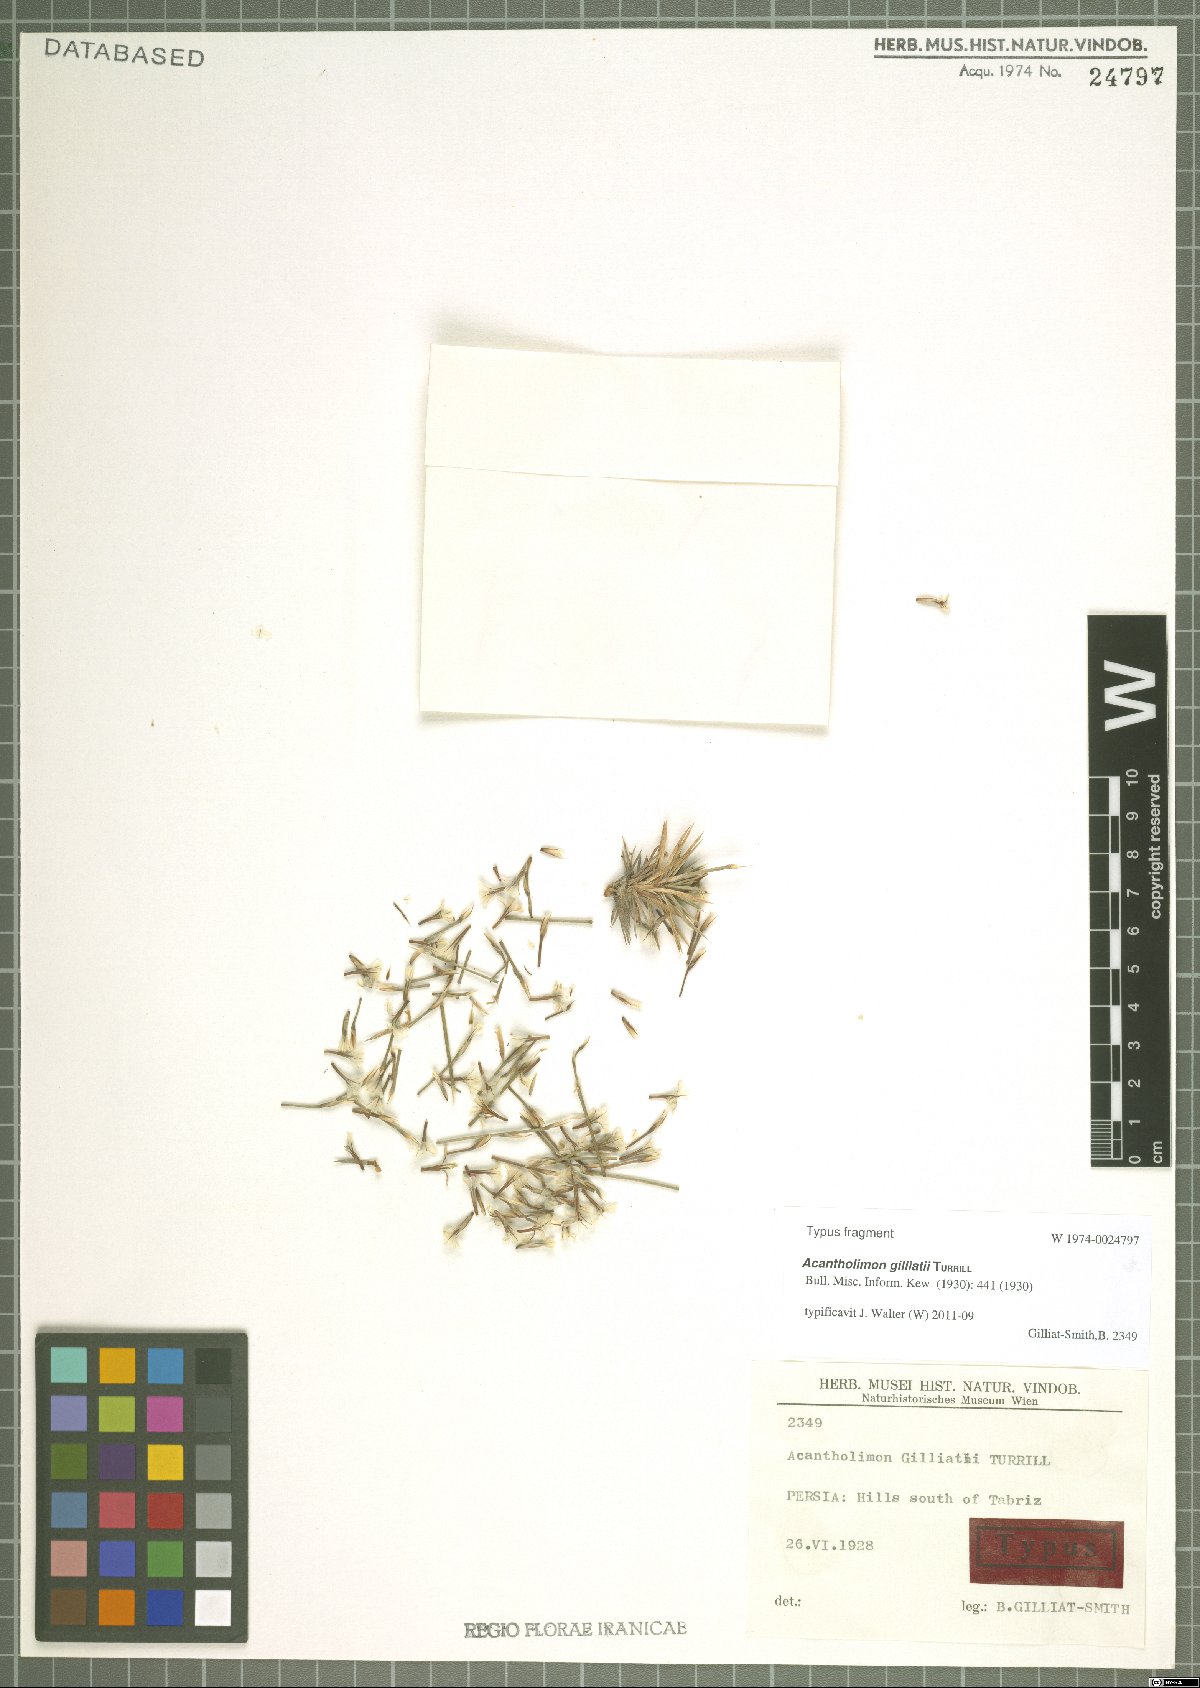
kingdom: Plantae
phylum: Tracheophyta
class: Magnoliopsida
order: Caryophyllales
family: Plumbaginaceae
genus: Acantholimon
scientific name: Acantholimon gilliatii
